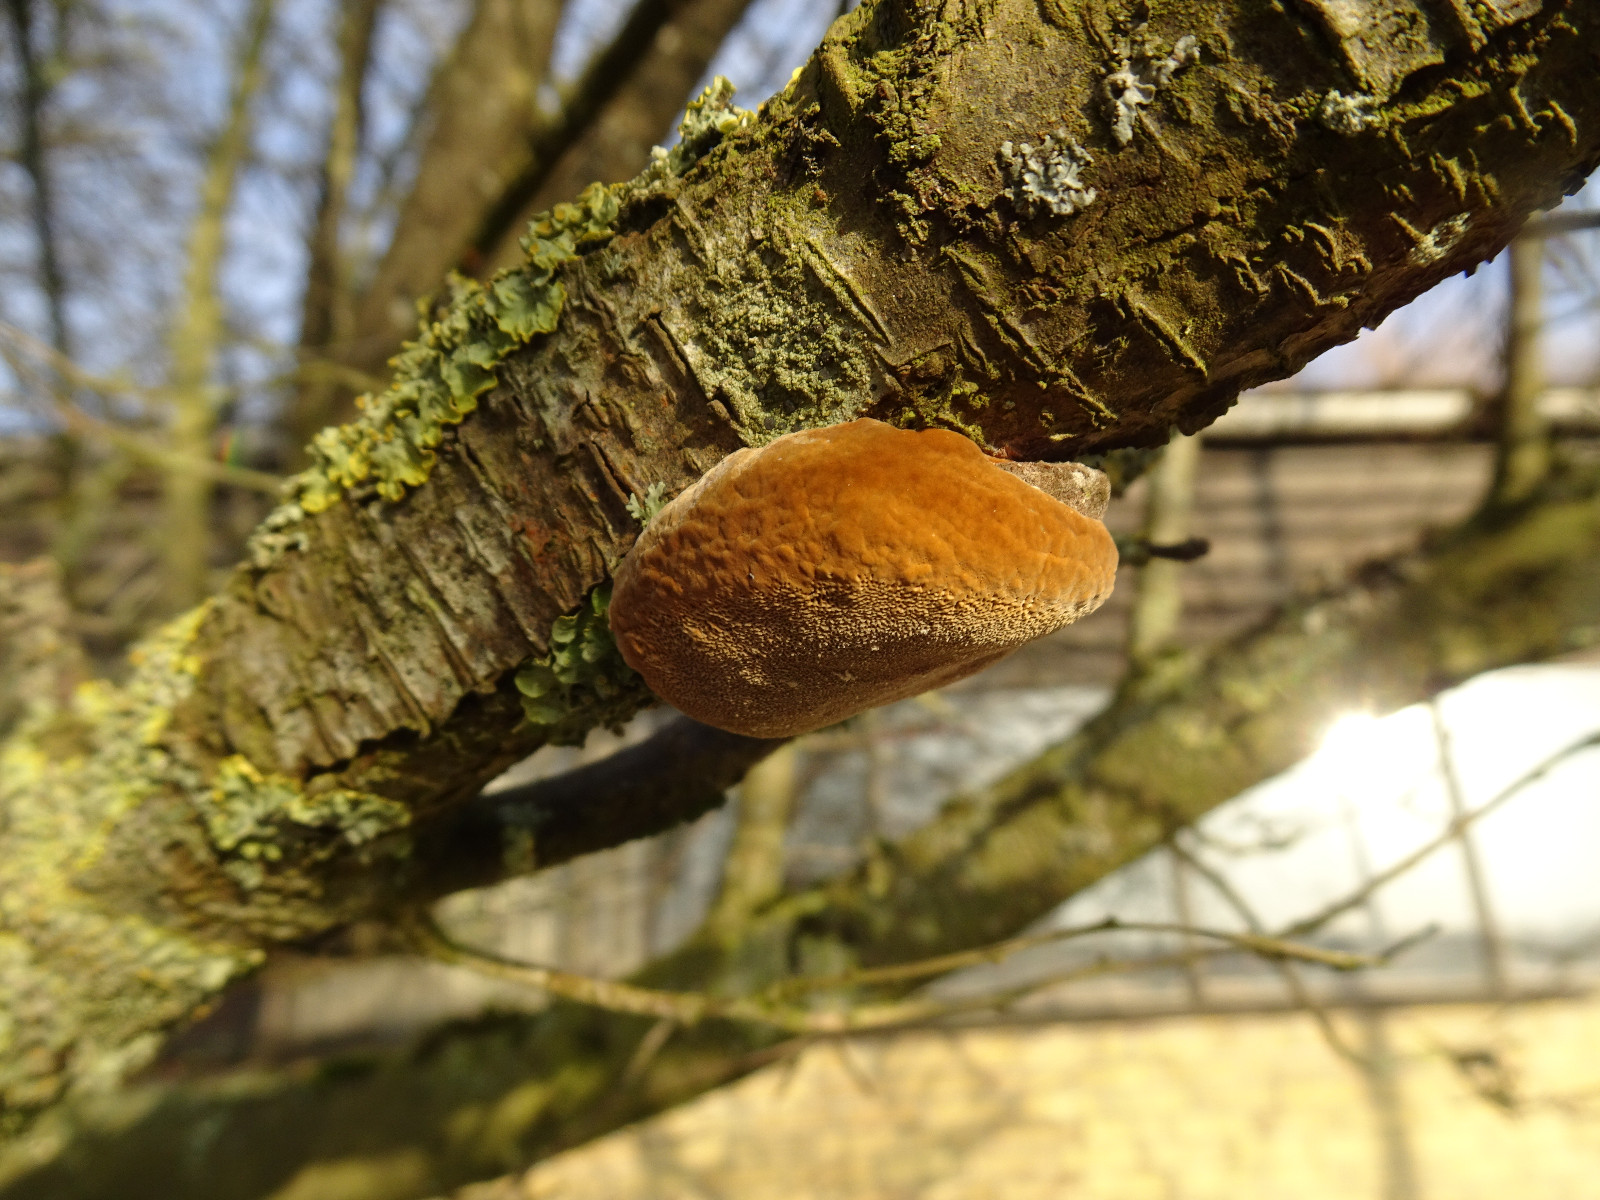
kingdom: Fungi
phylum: Basidiomycota
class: Agaricomycetes
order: Hymenochaetales
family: Hymenochaetaceae
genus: Phellinus
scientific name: Phellinus pomaceus
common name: blomme-ildporesvamp
